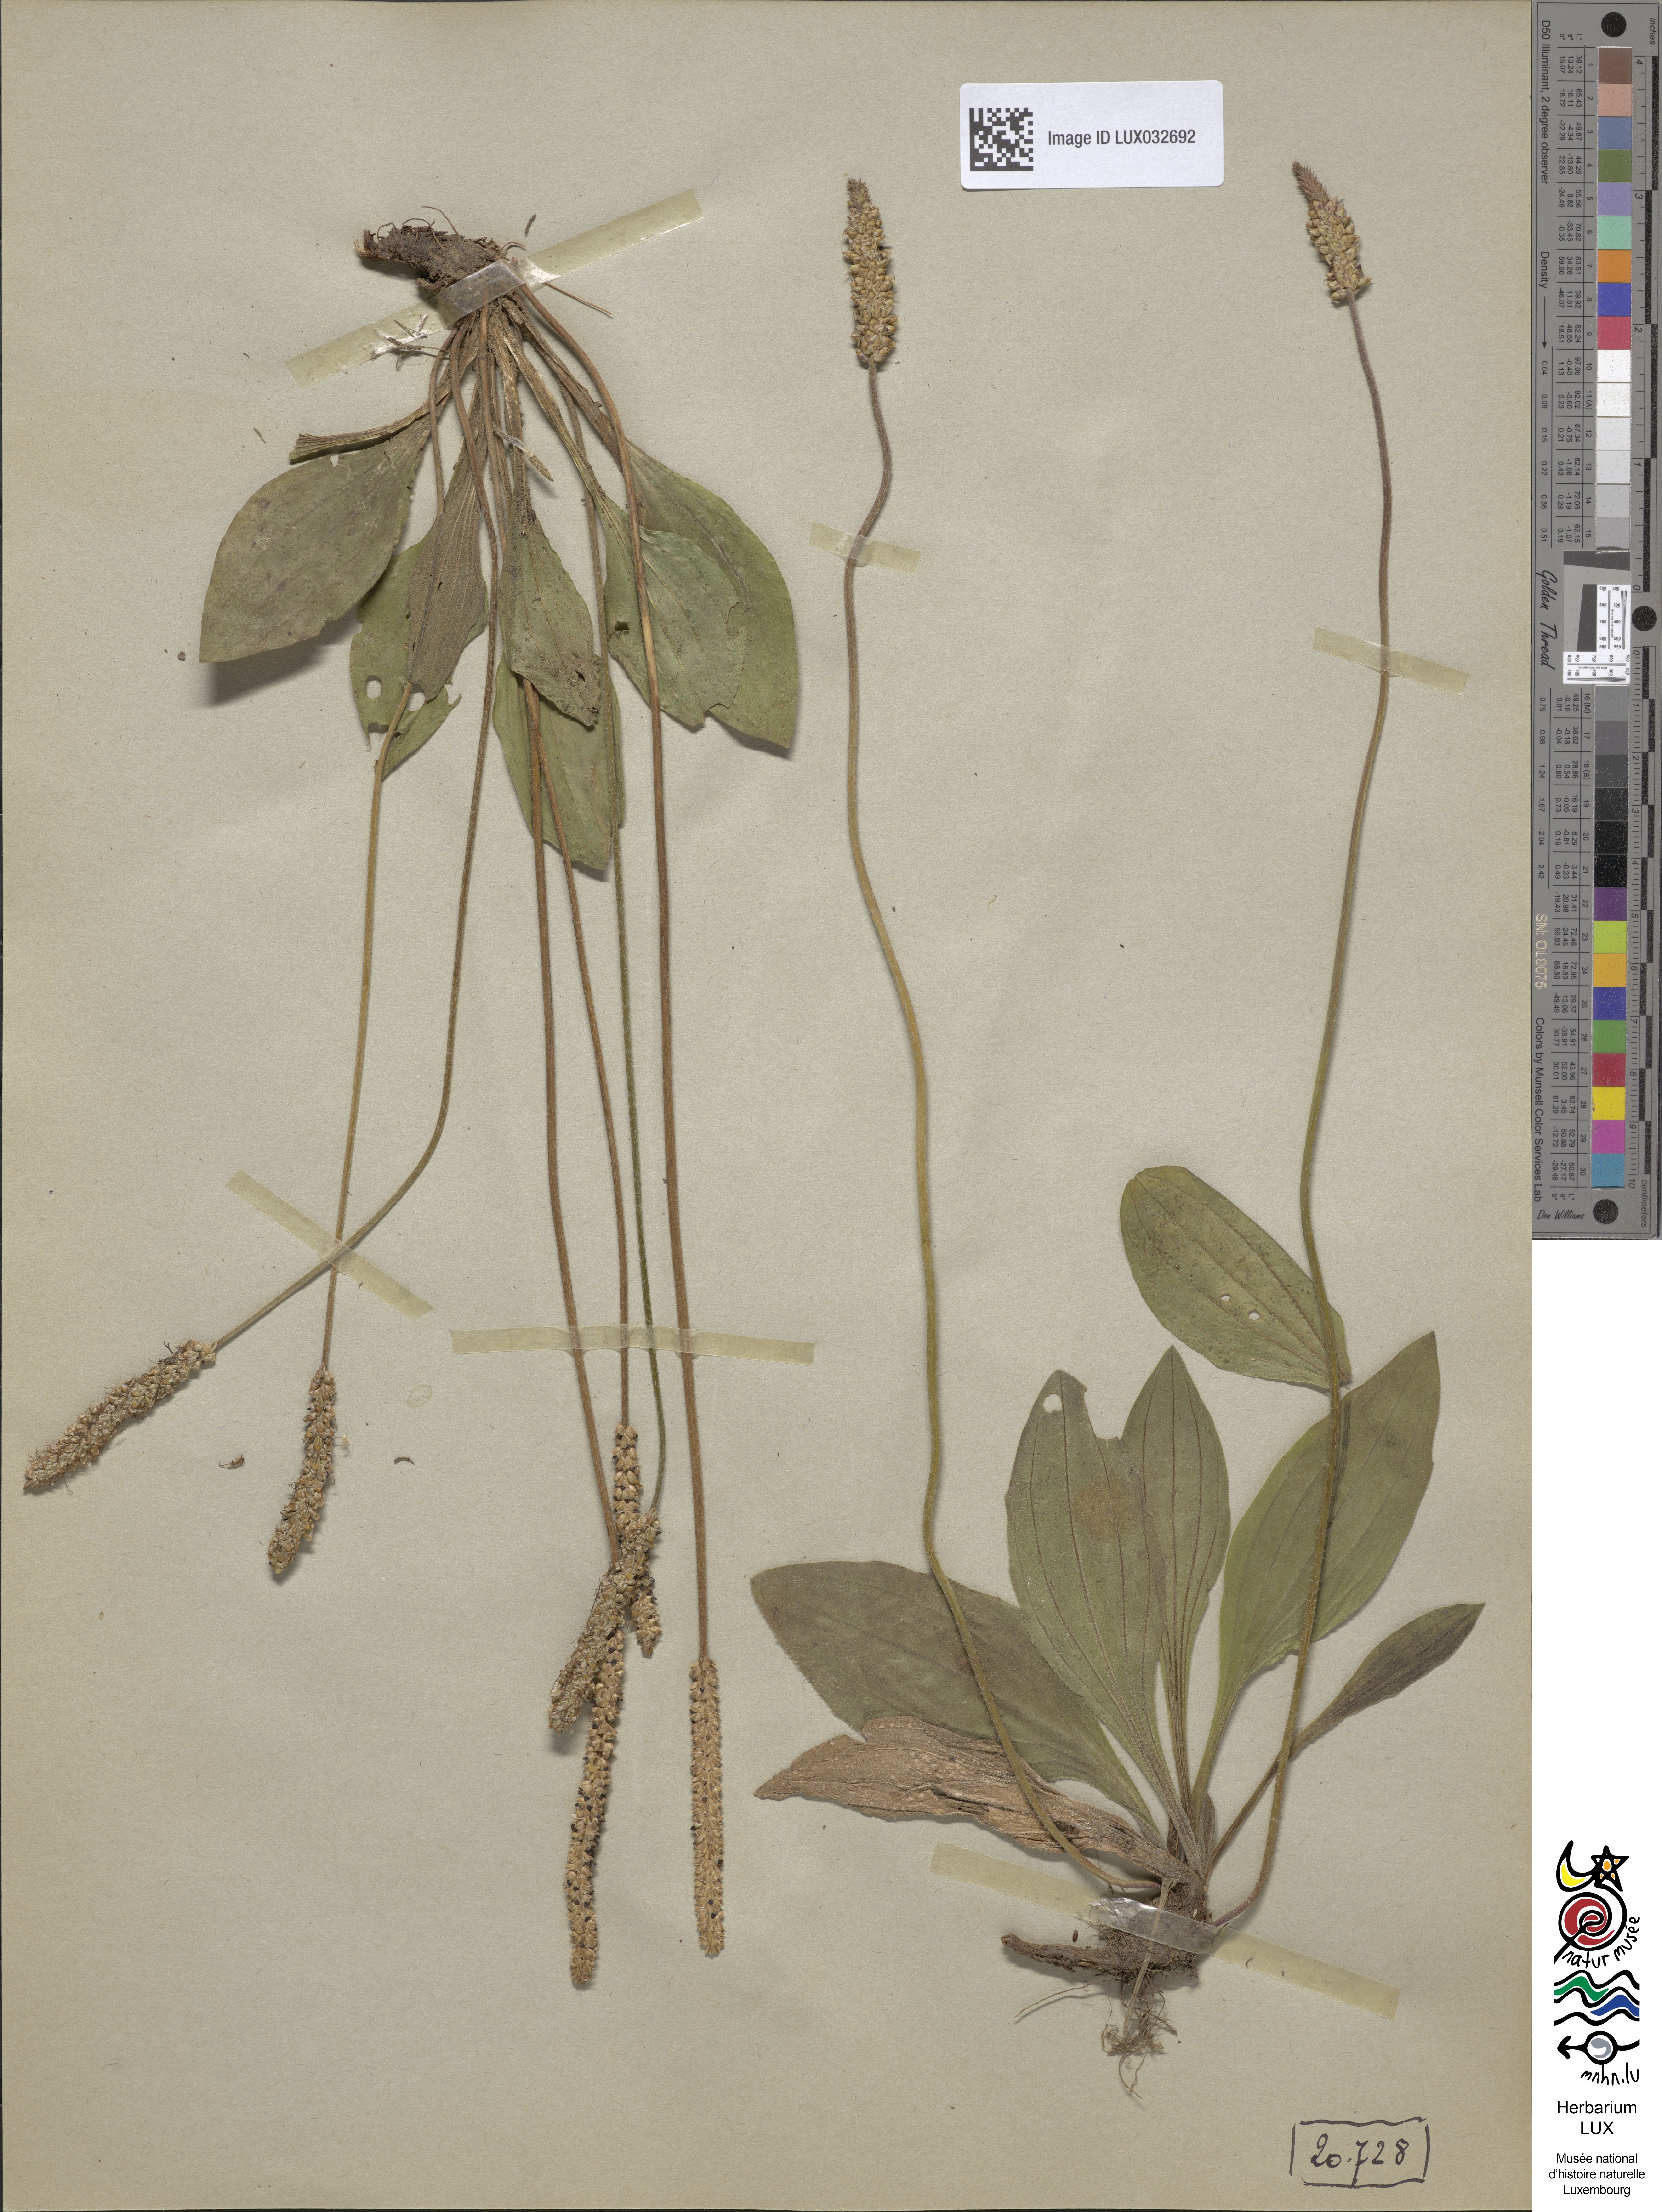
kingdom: Plantae
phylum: Tracheophyta
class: Magnoliopsida
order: Lamiales
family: Plantaginaceae
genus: Plantago
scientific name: Plantago media
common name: Hoary plantain
